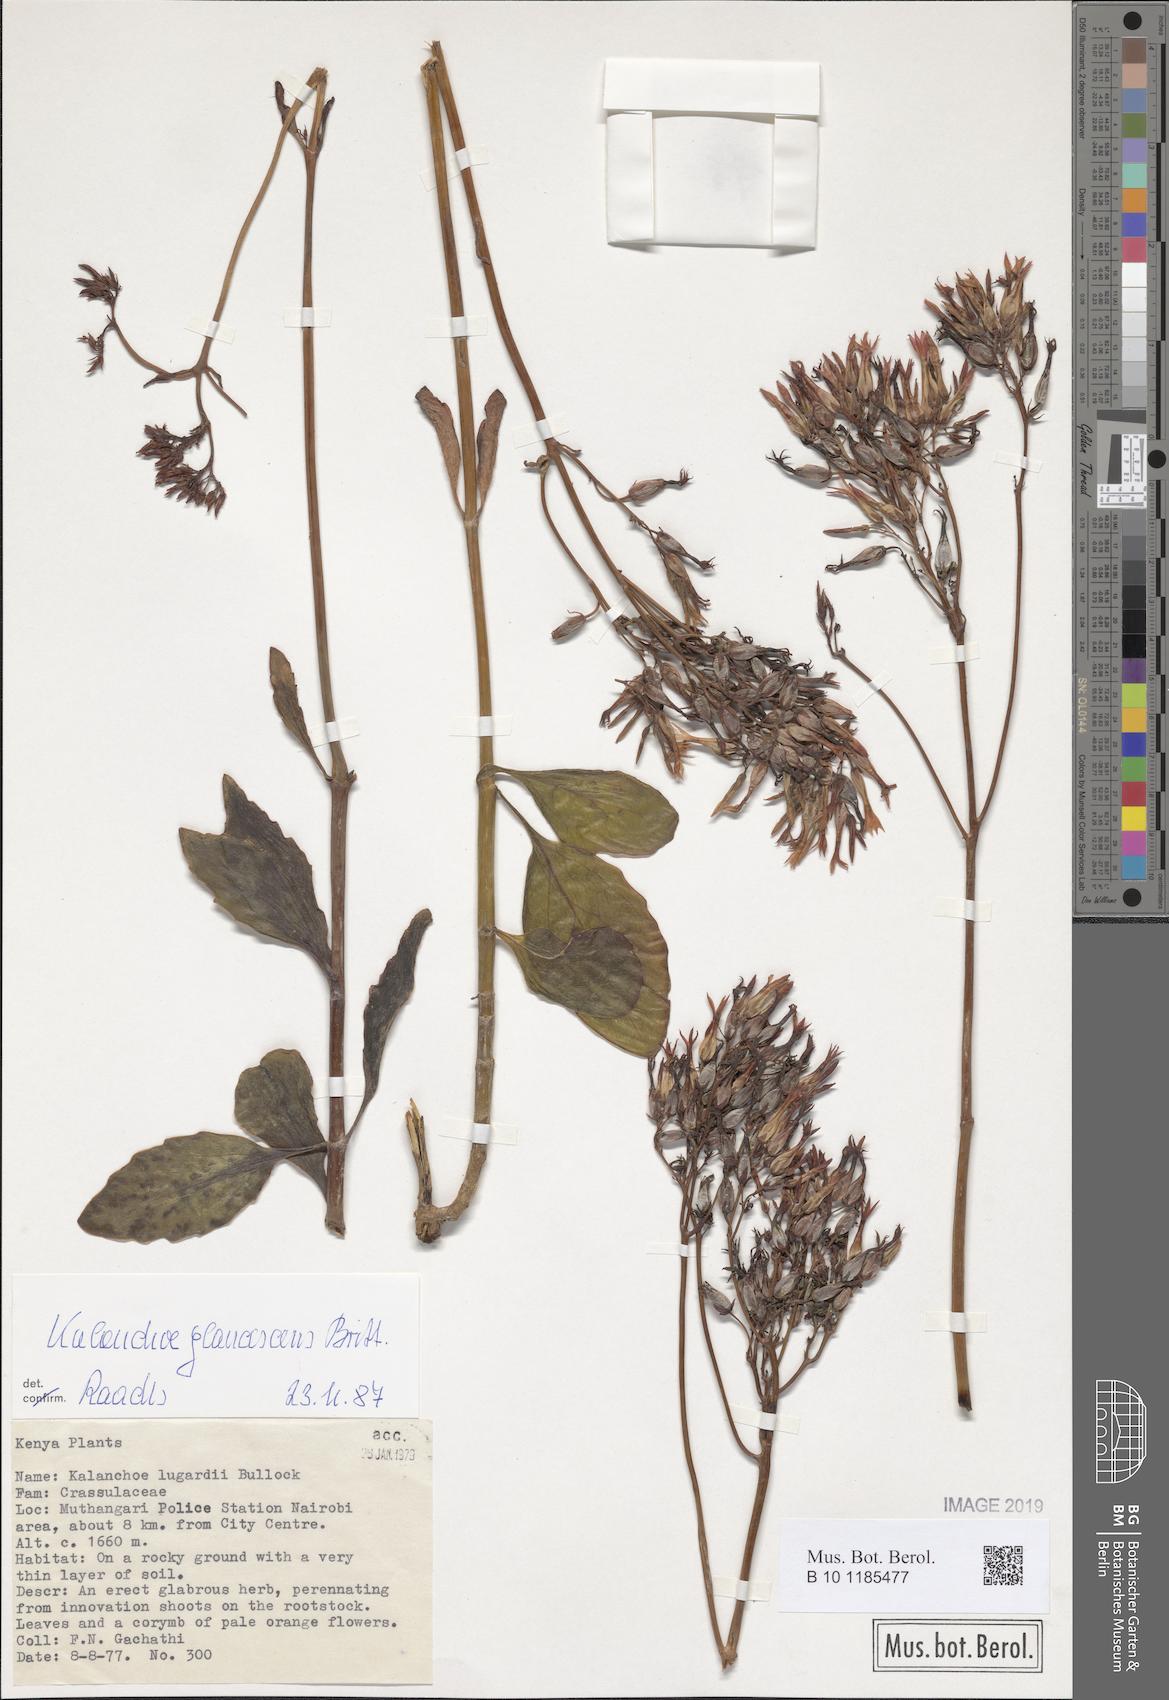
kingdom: Plantae
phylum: Tracheophyta
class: Magnoliopsida
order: Saxifragales
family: Crassulaceae
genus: Kalanchoe
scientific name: Kalanchoe glaucescens
